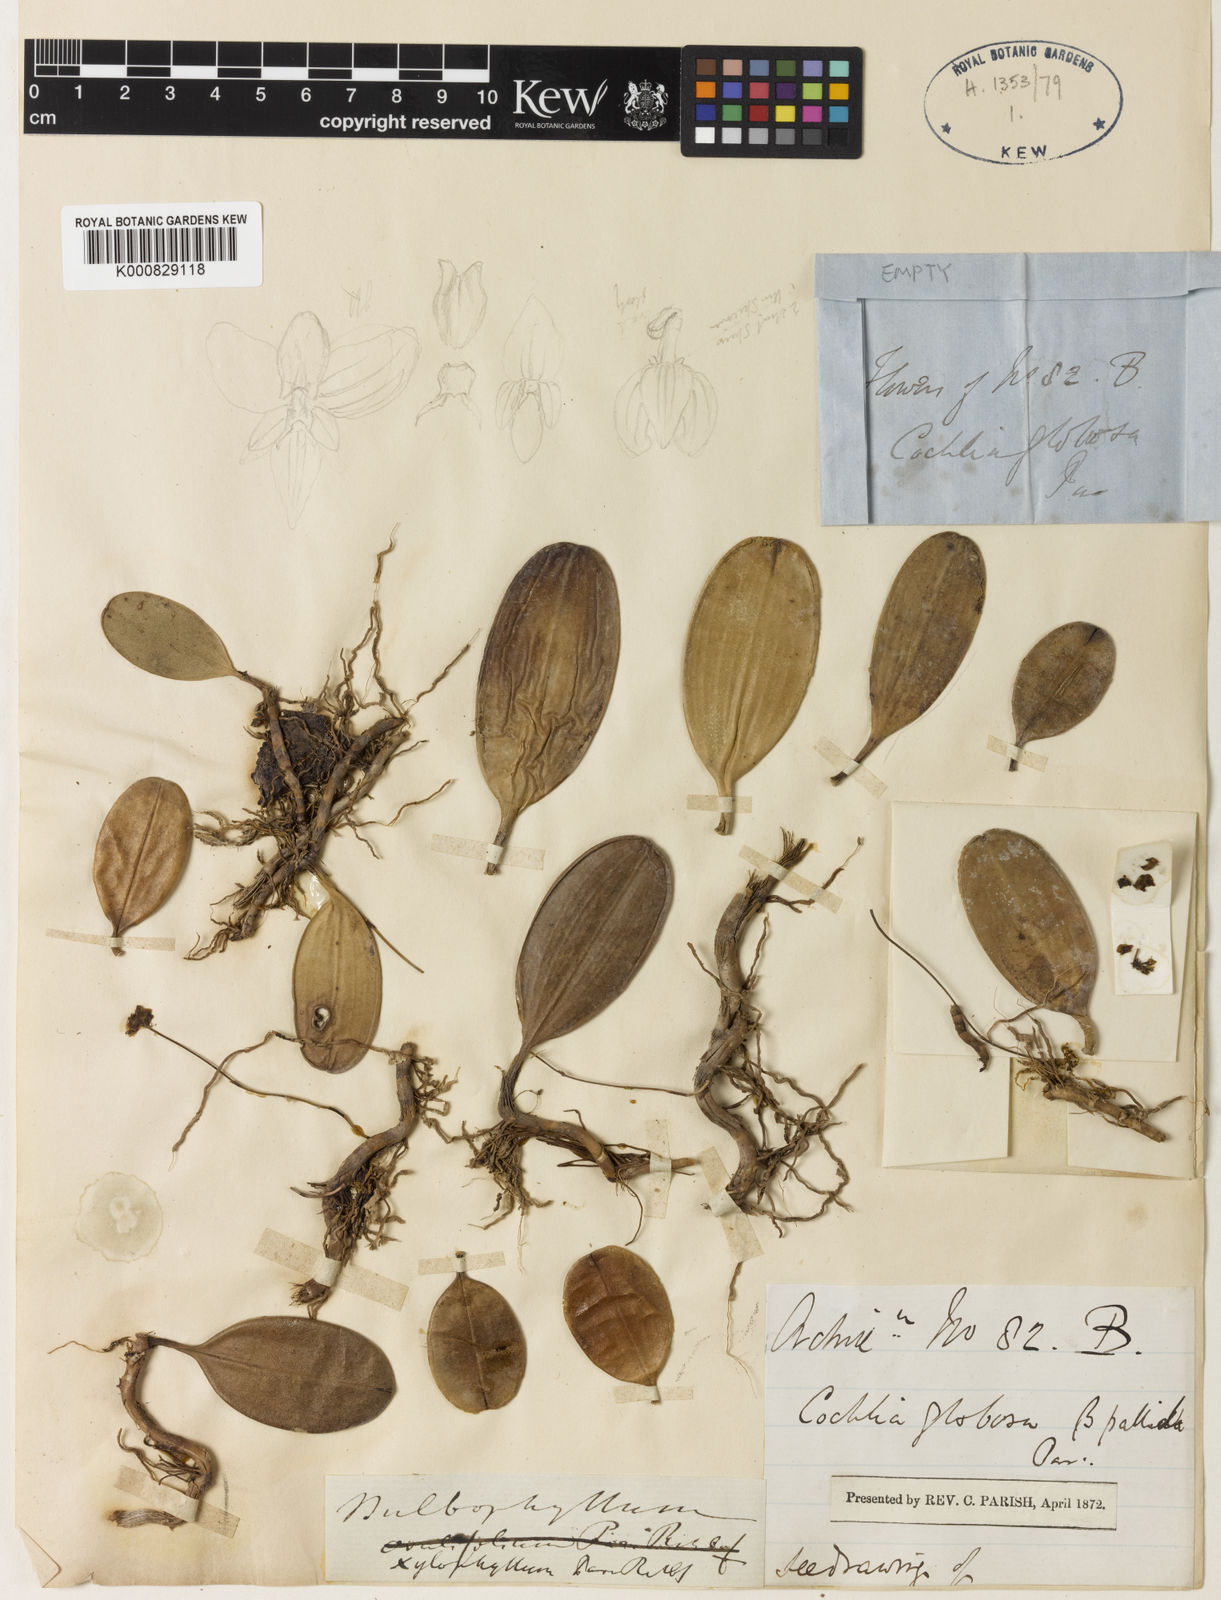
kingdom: Plantae
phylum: Tracheophyta
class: Liliopsida
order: Asparagales
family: Orchidaceae
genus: Bulbophyllum
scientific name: Bulbophyllum xylophyllum
